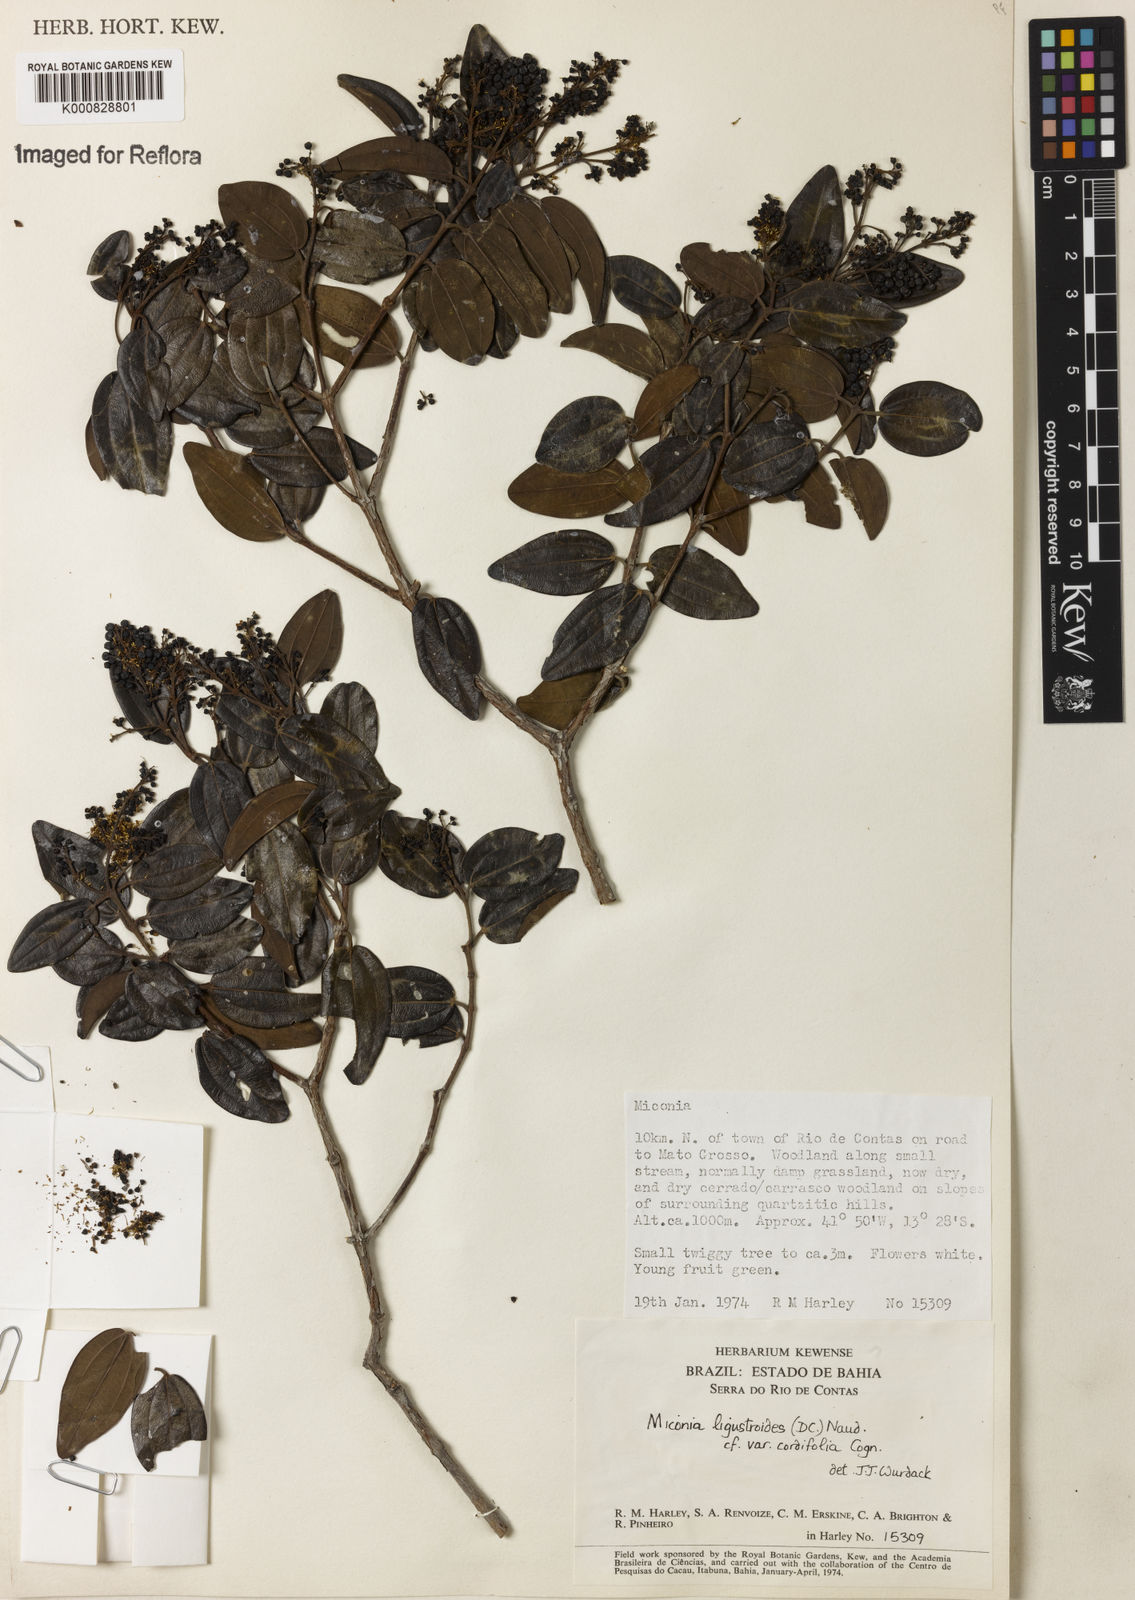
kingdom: Plantae
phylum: Tracheophyta
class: Magnoliopsida
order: Myrtales
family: Melastomataceae
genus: Miconia
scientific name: Miconia ligustroides
